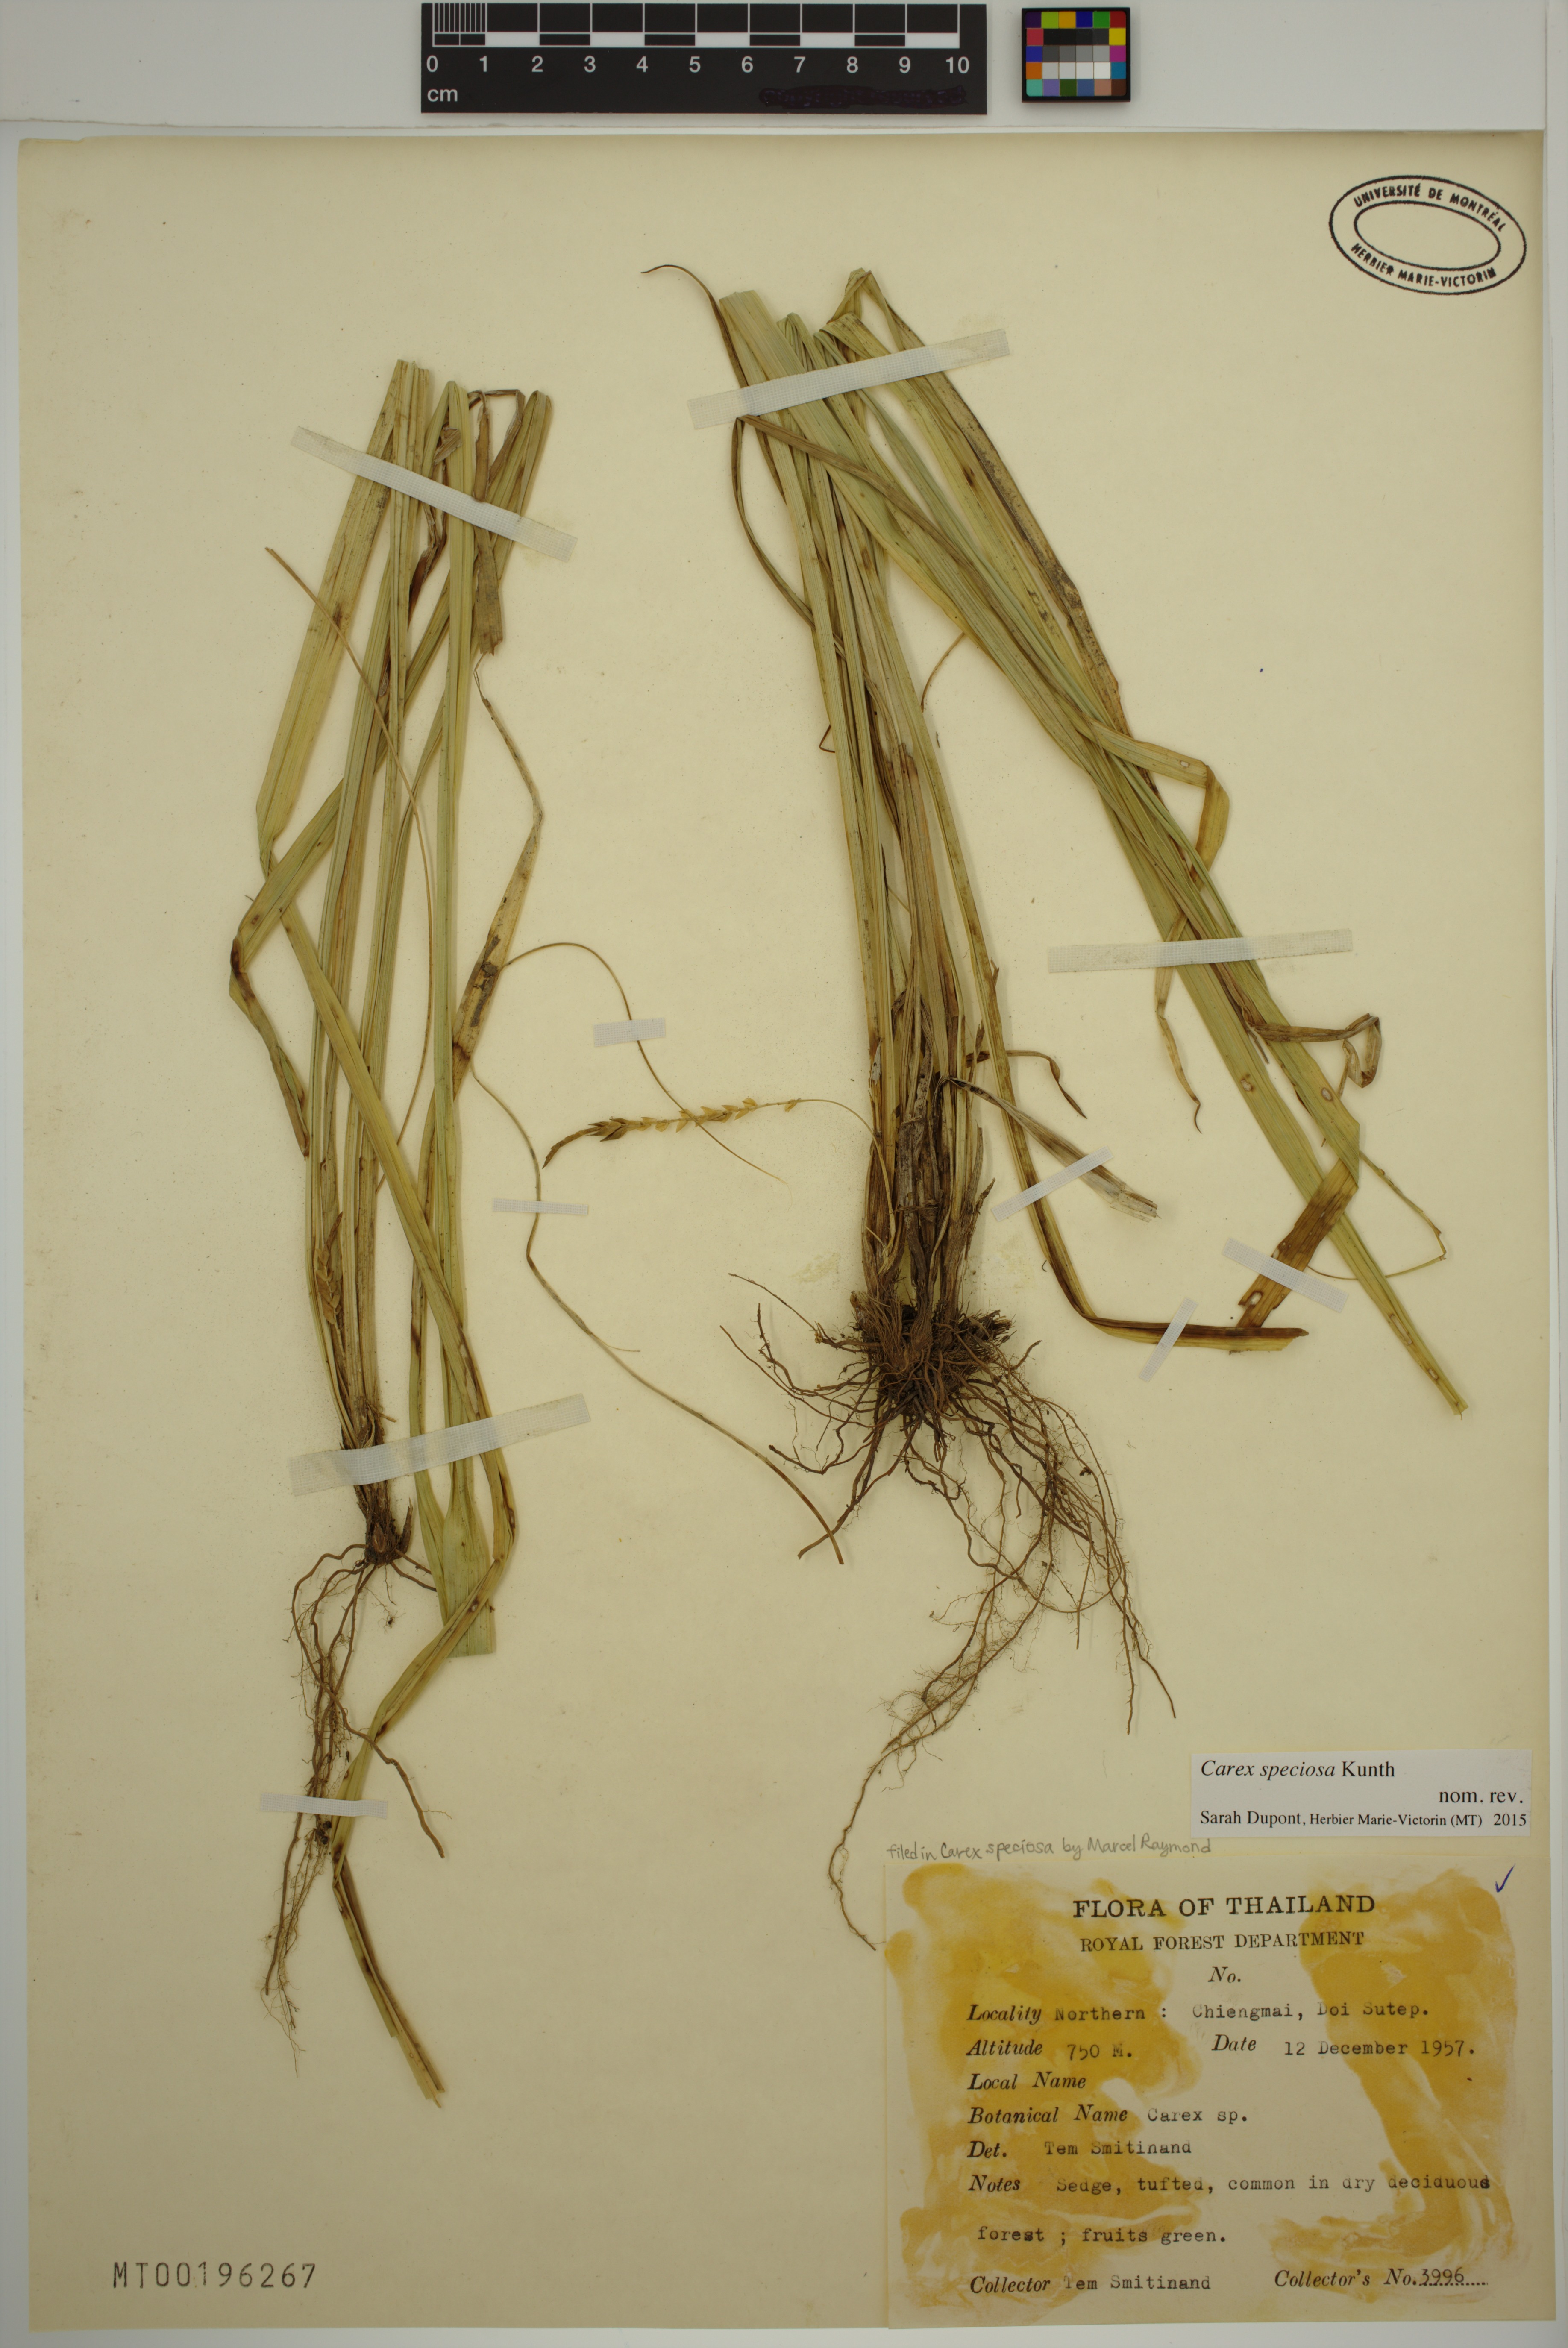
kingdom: Plantae
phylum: Tracheophyta
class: Liliopsida
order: Poales
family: Cyperaceae
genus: Carex
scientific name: Carex speciosa
